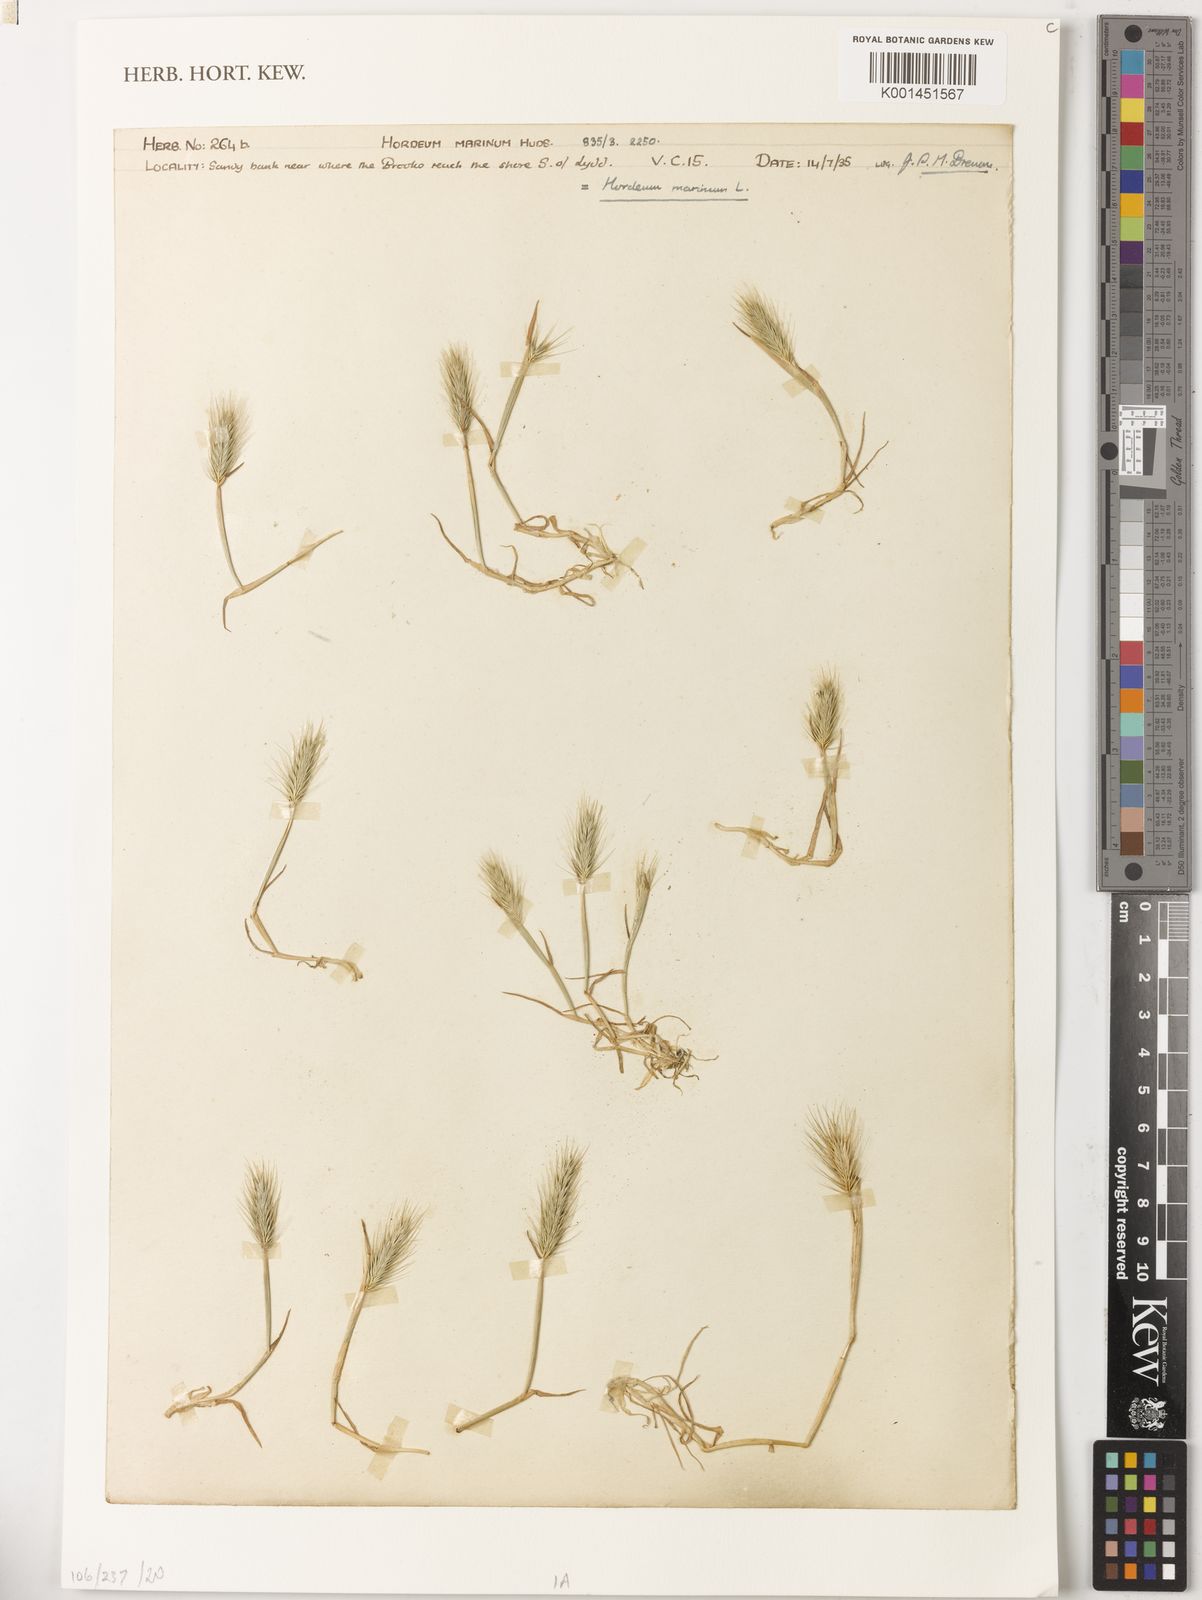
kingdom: Plantae
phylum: Tracheophyta
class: Liliopsida
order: Poales
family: Poaceae
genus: Hordeum
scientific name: Hordeum marinum
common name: Sea barley
